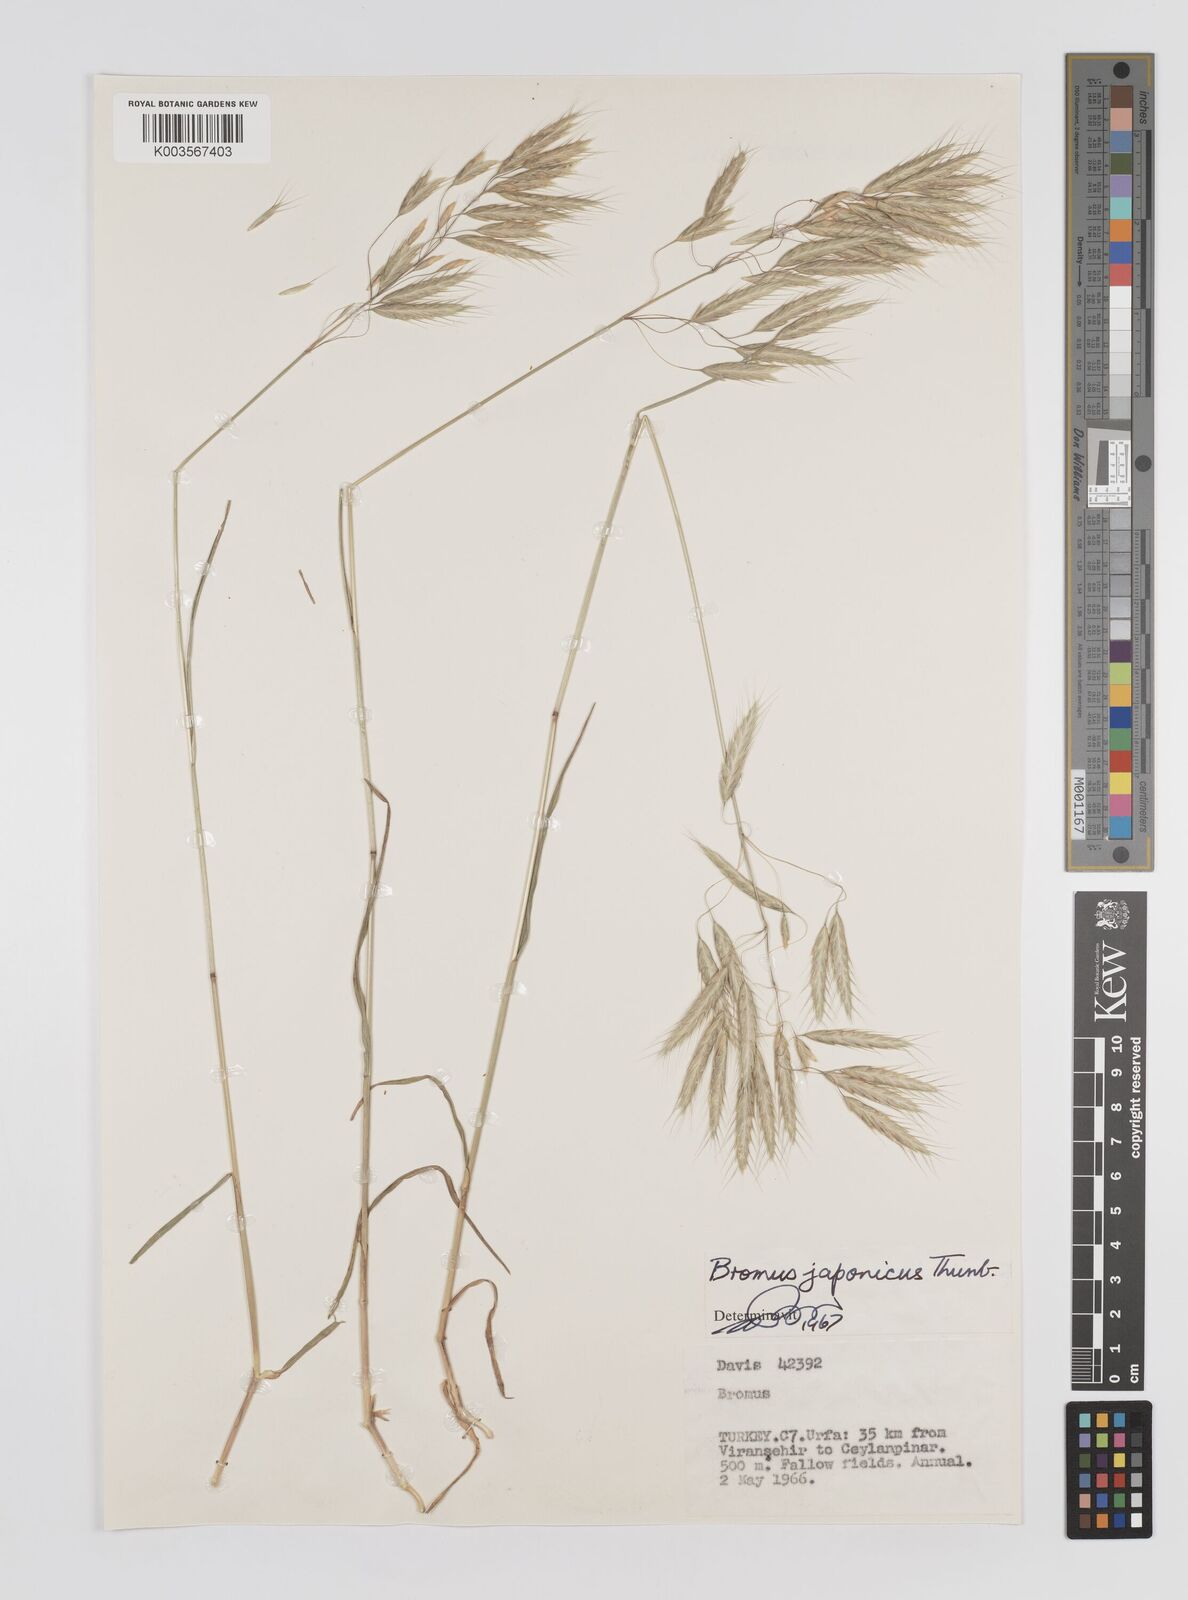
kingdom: Plantae
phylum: Tracheophyta
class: Liliopsida
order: Poales
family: Poaceae
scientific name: Poaceae
